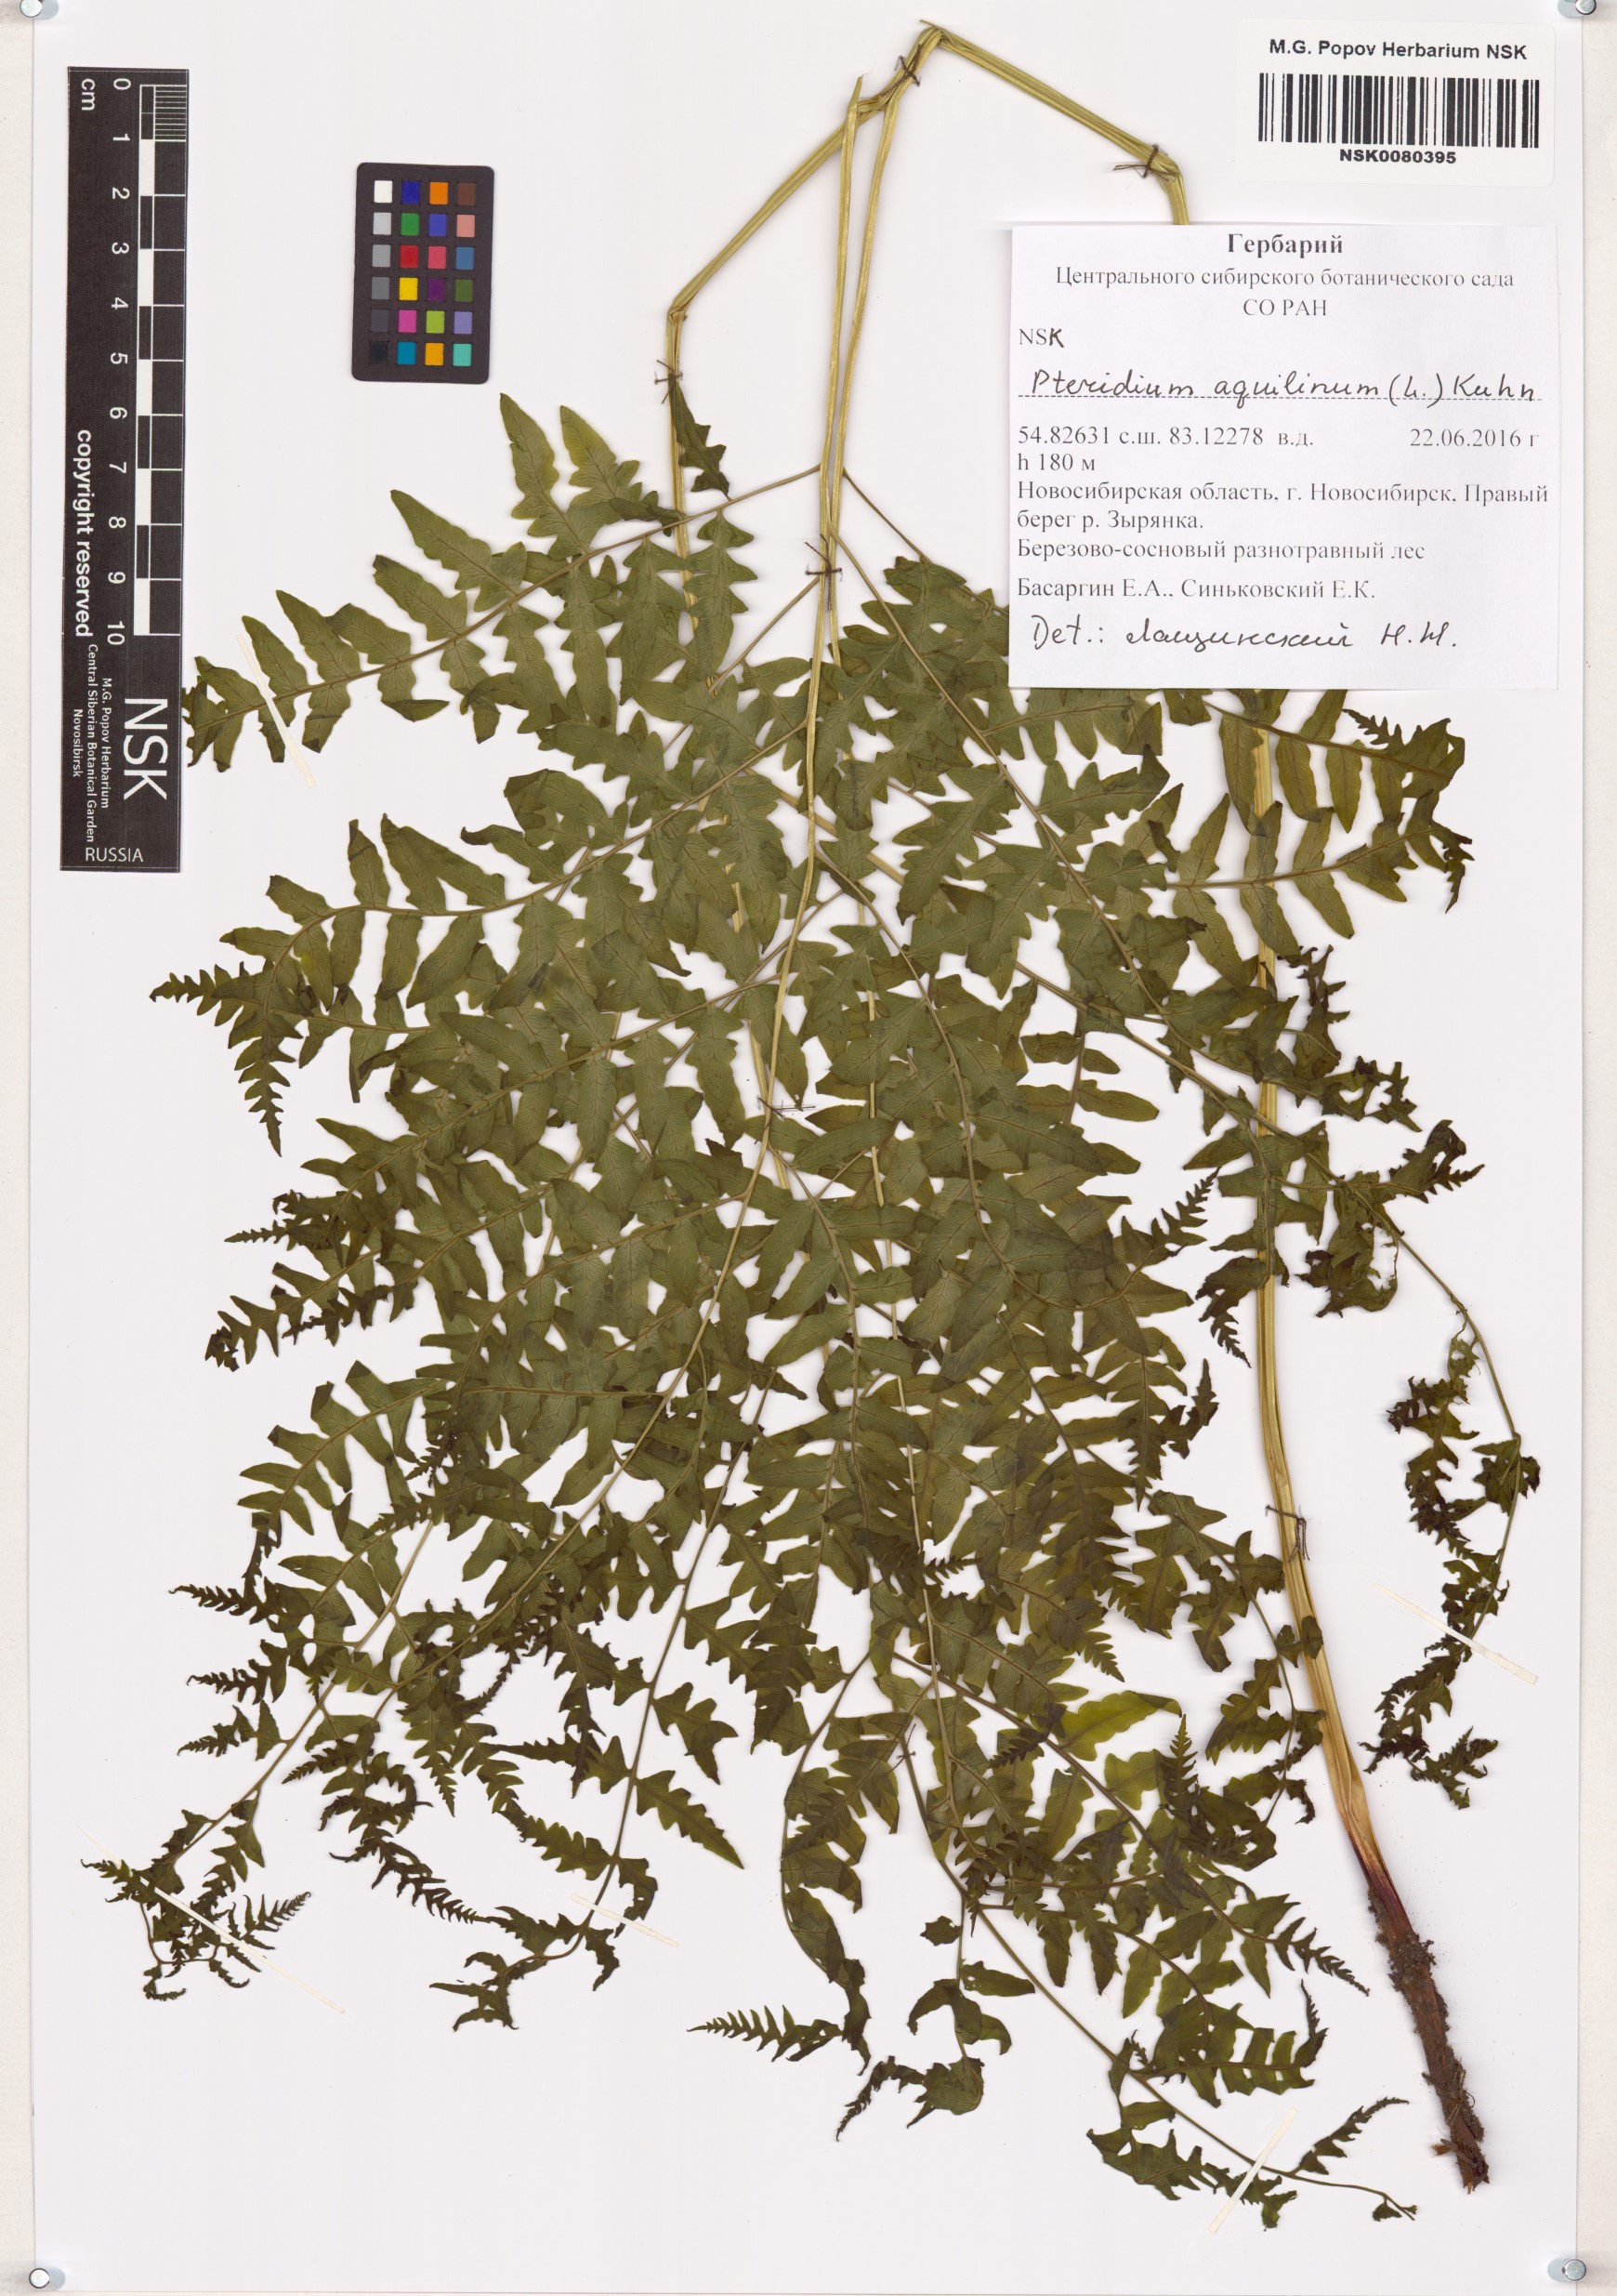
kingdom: Plantae
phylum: Tracheophyta
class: Polypodiopsida
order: Polypodiales
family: Dennstaedtiaceae
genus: Pteridium
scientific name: Pteridium aquilinum
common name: Bracken
